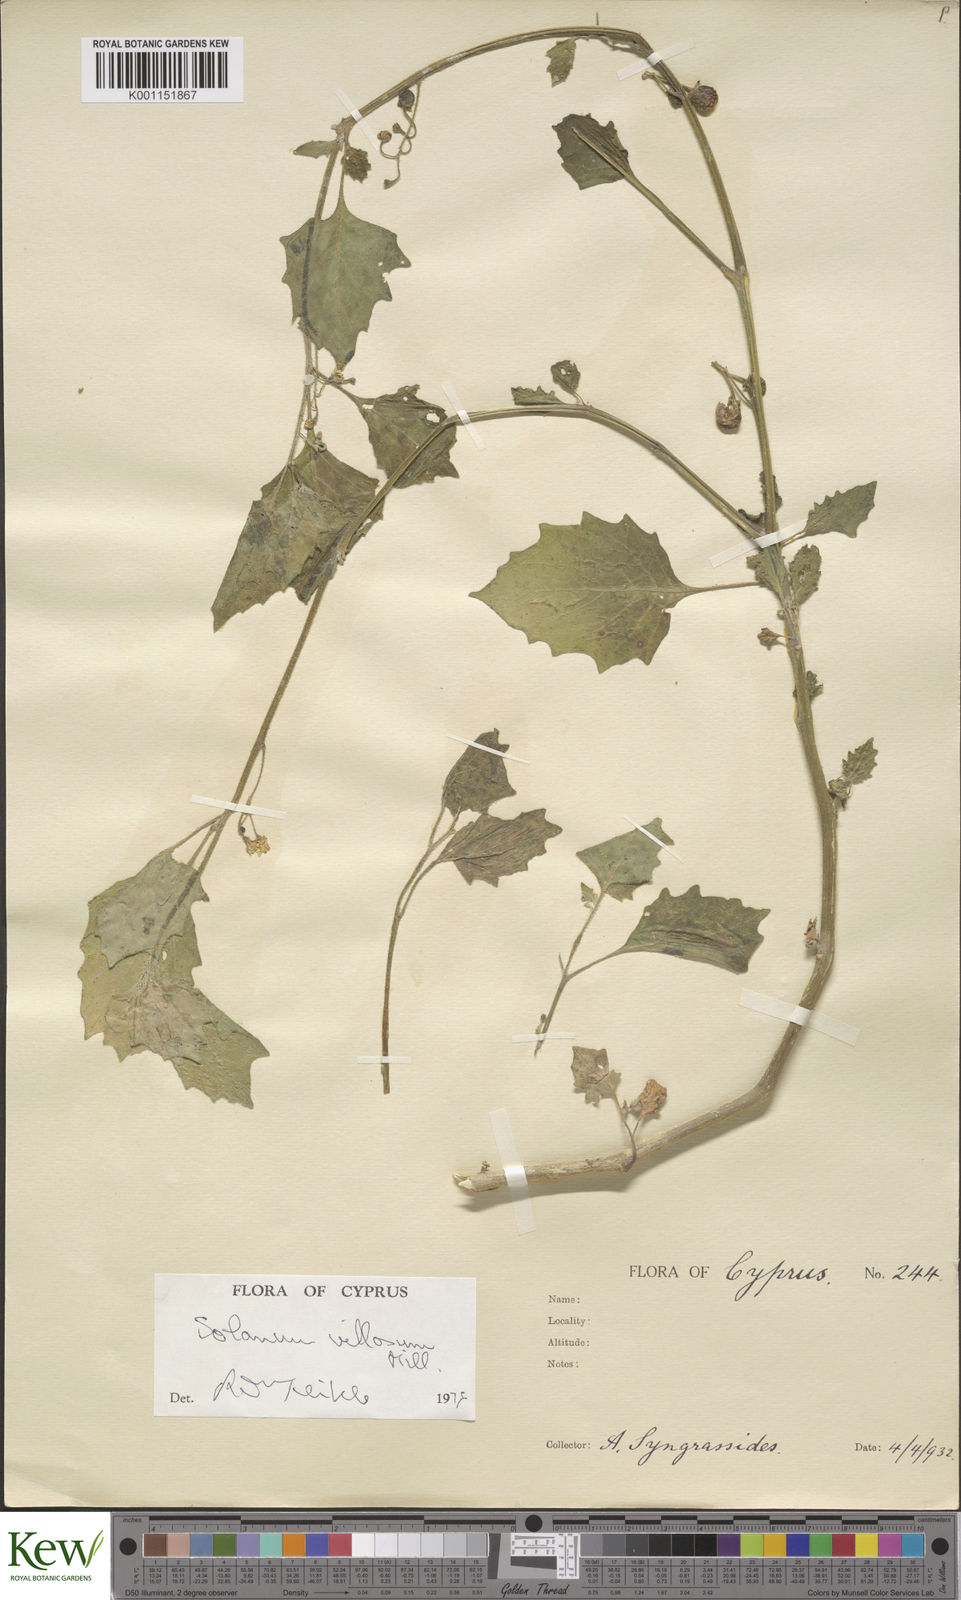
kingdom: Plantae
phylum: Tracheophyta
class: Magnoliopsida
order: Solanales
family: Solanaceae
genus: Solanum
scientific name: Solanum villosum
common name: Red nightshade
